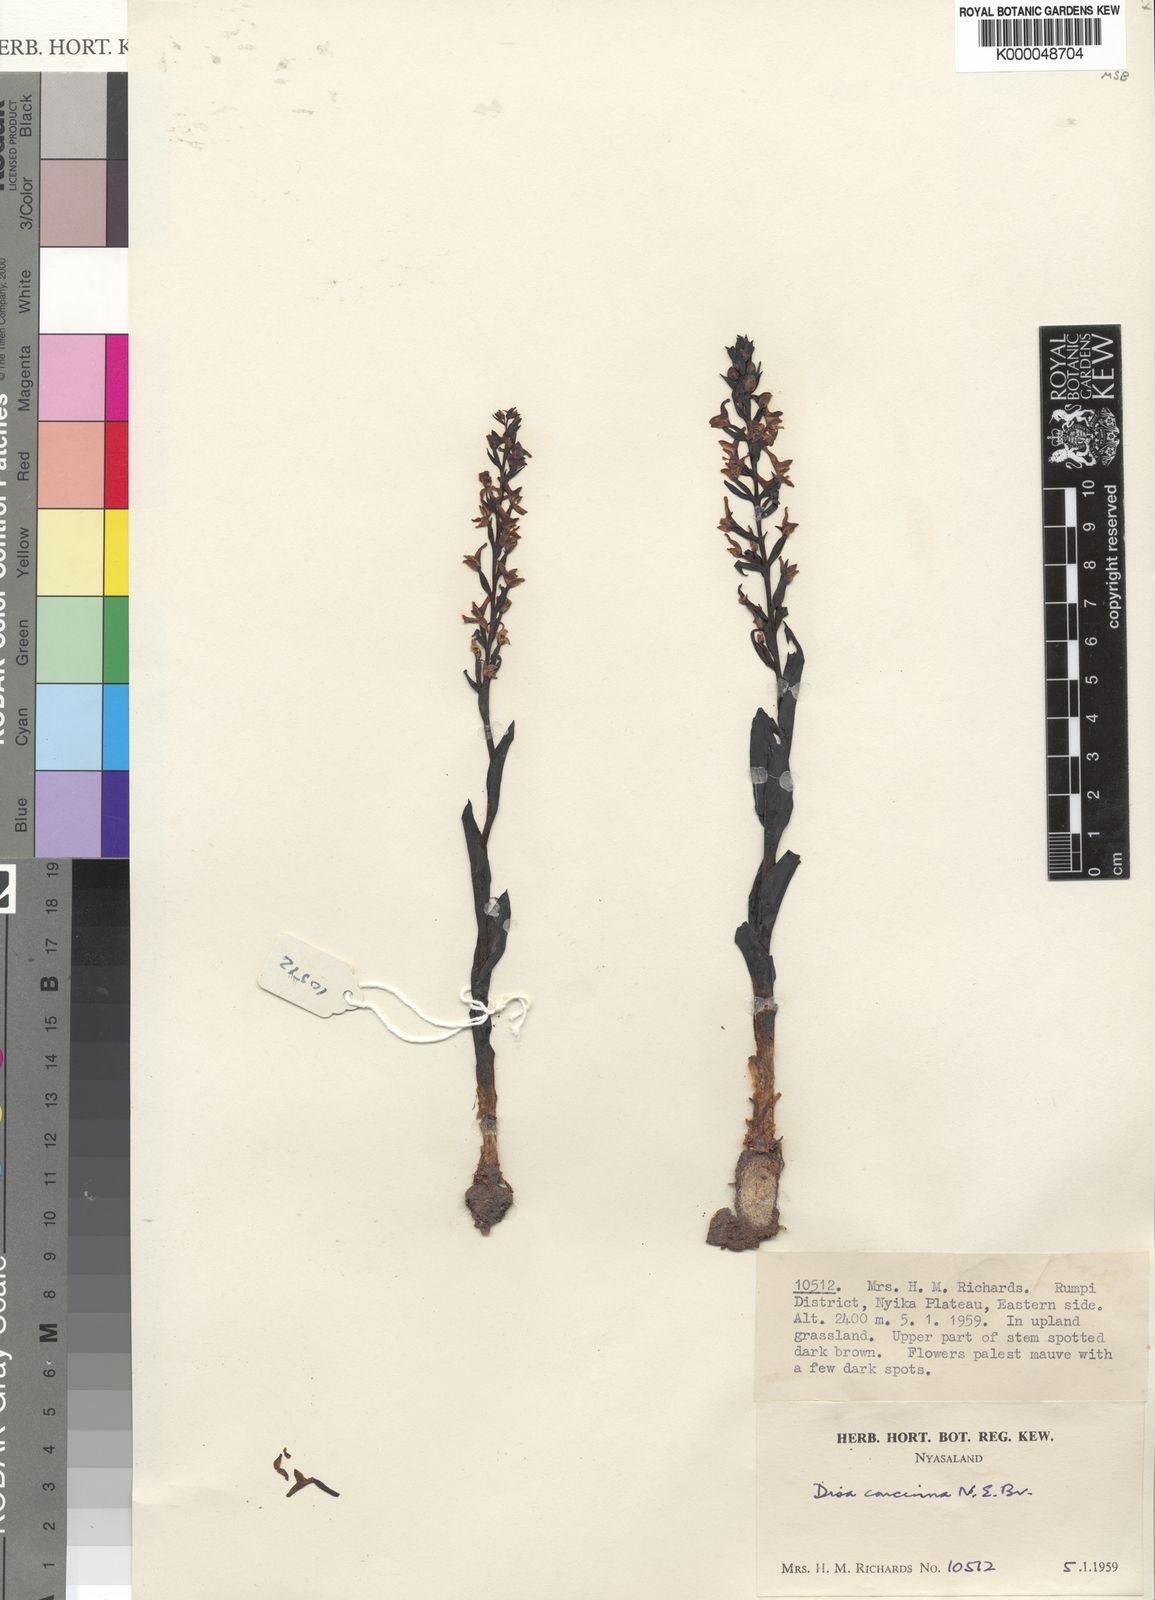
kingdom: Plantae
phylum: Tracheophyta
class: Liliopsida
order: Asparagales
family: Orchidaceae
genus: Disa
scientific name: Disa nyikensis
